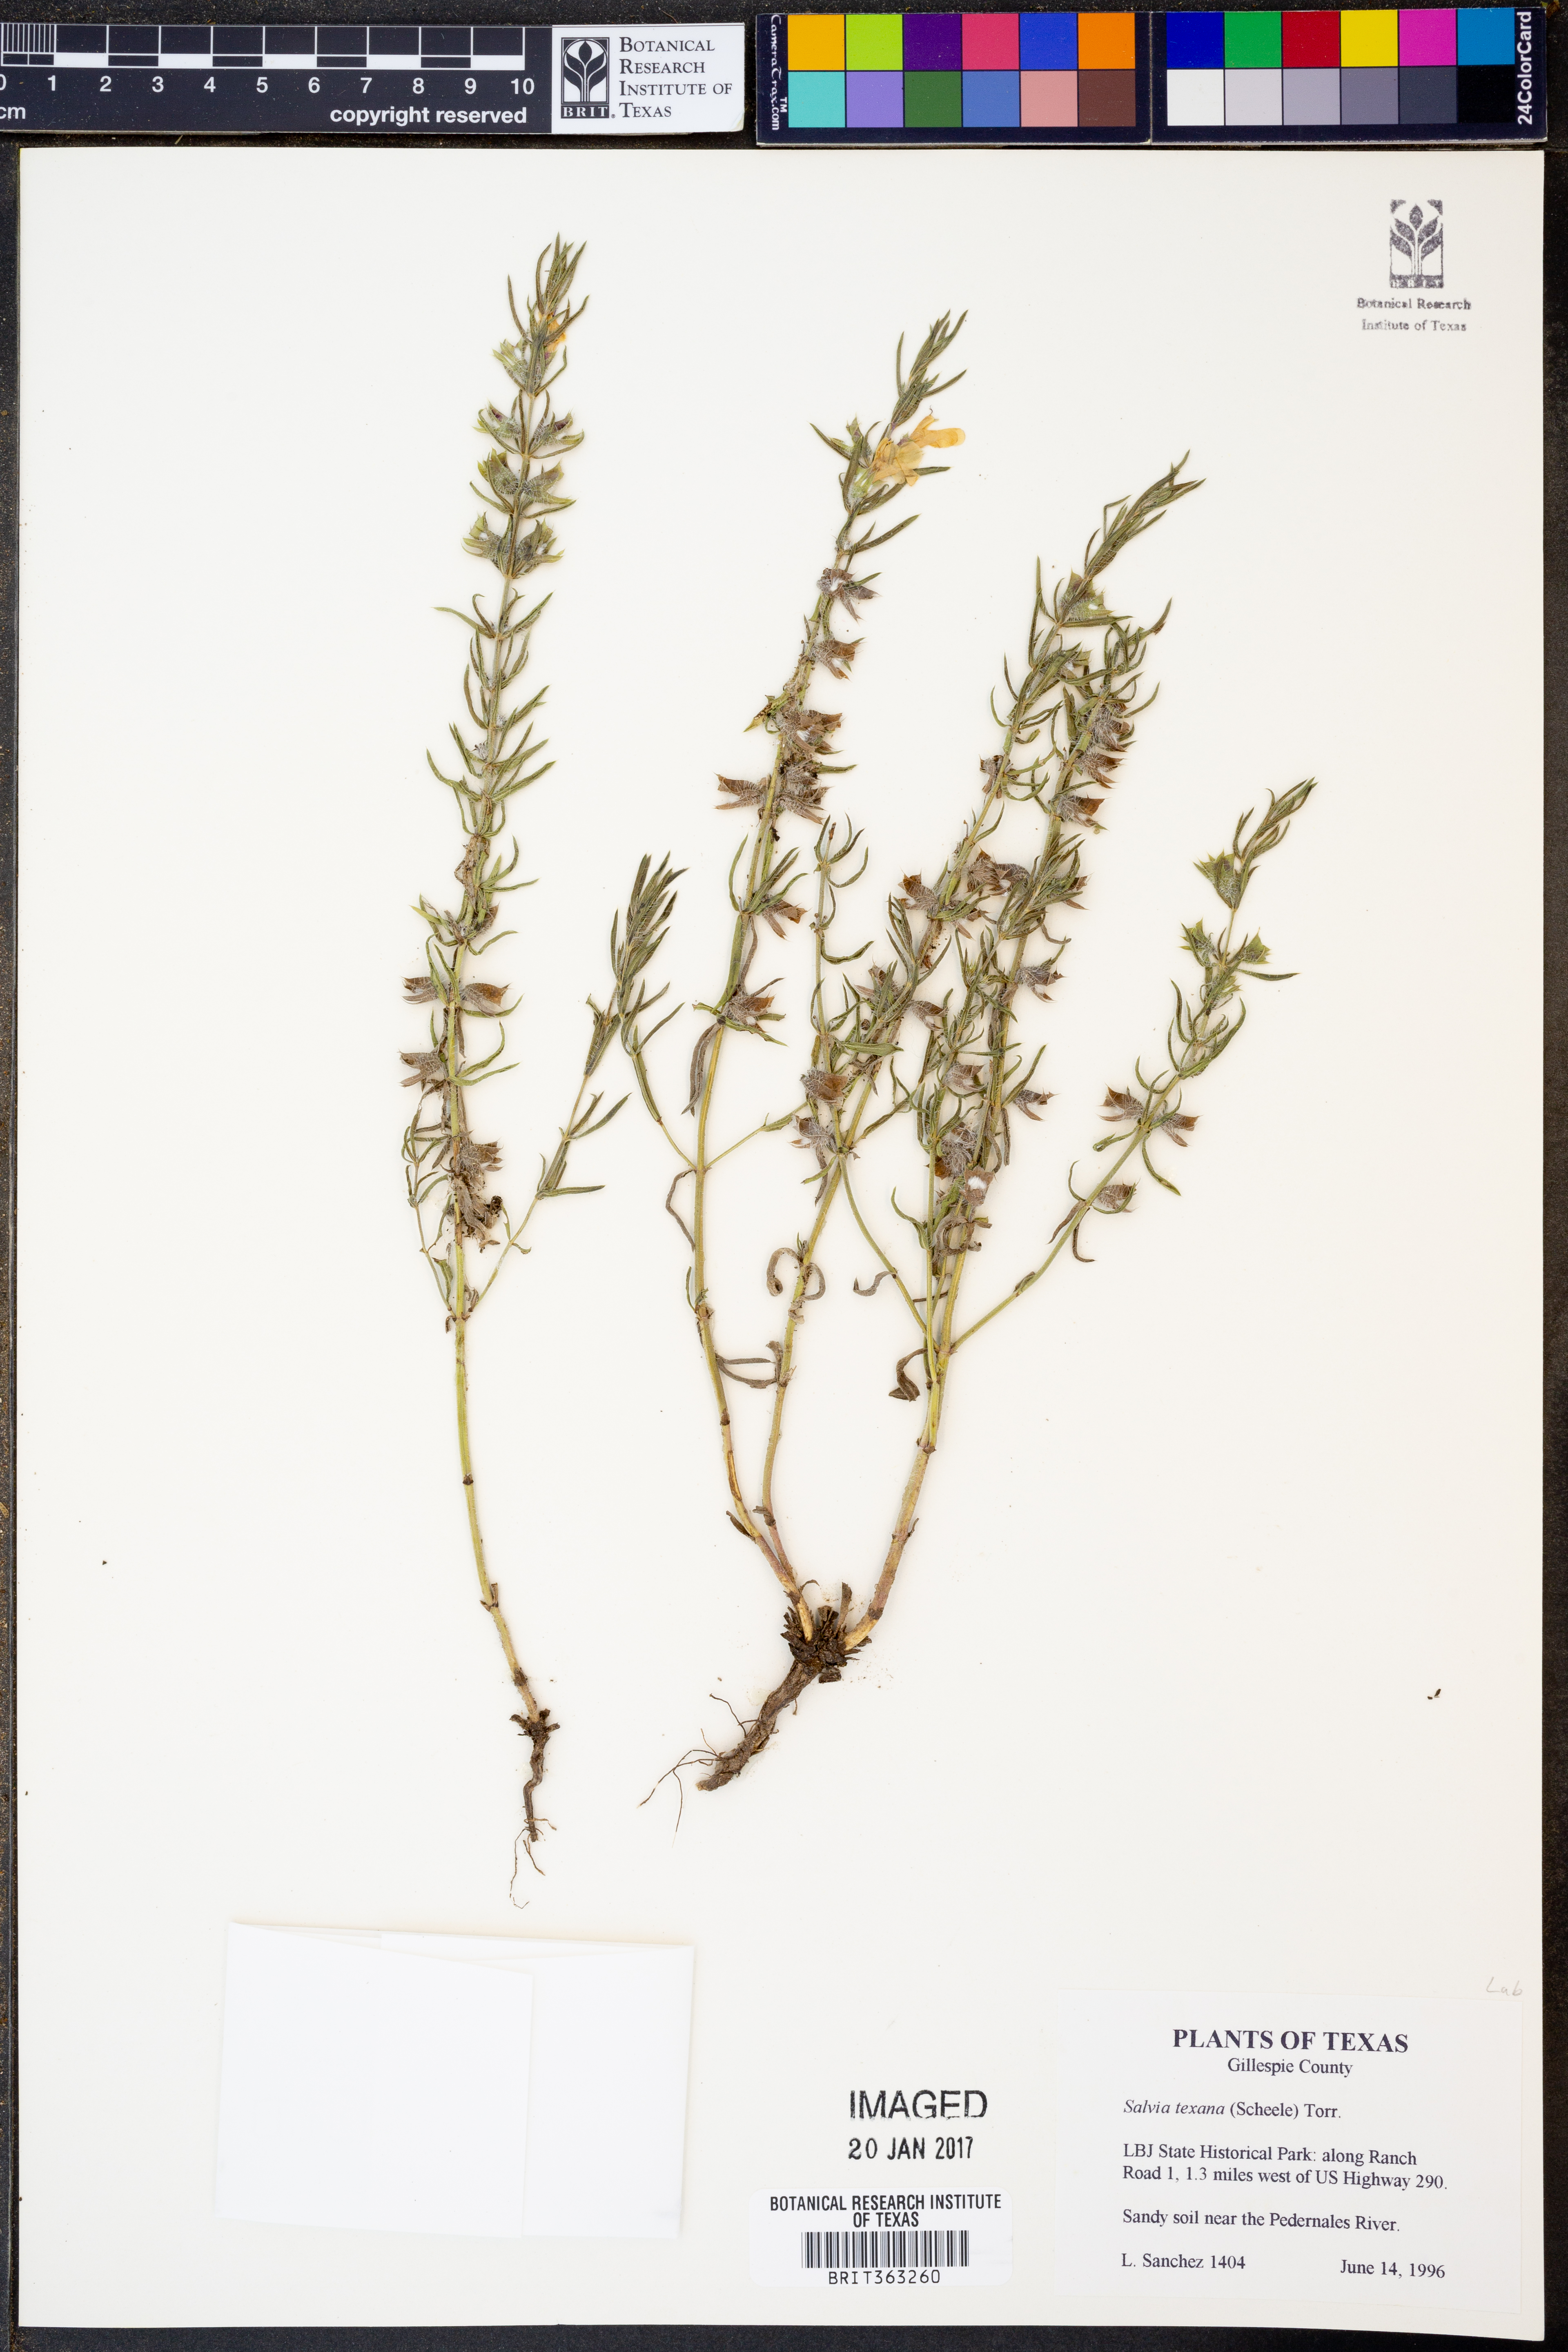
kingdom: Plantae
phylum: Tracheophyta
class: Magnoliopsida
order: Lamiales
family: Lamiaceae
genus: Salvia
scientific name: Salvia texana
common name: Texas sage
